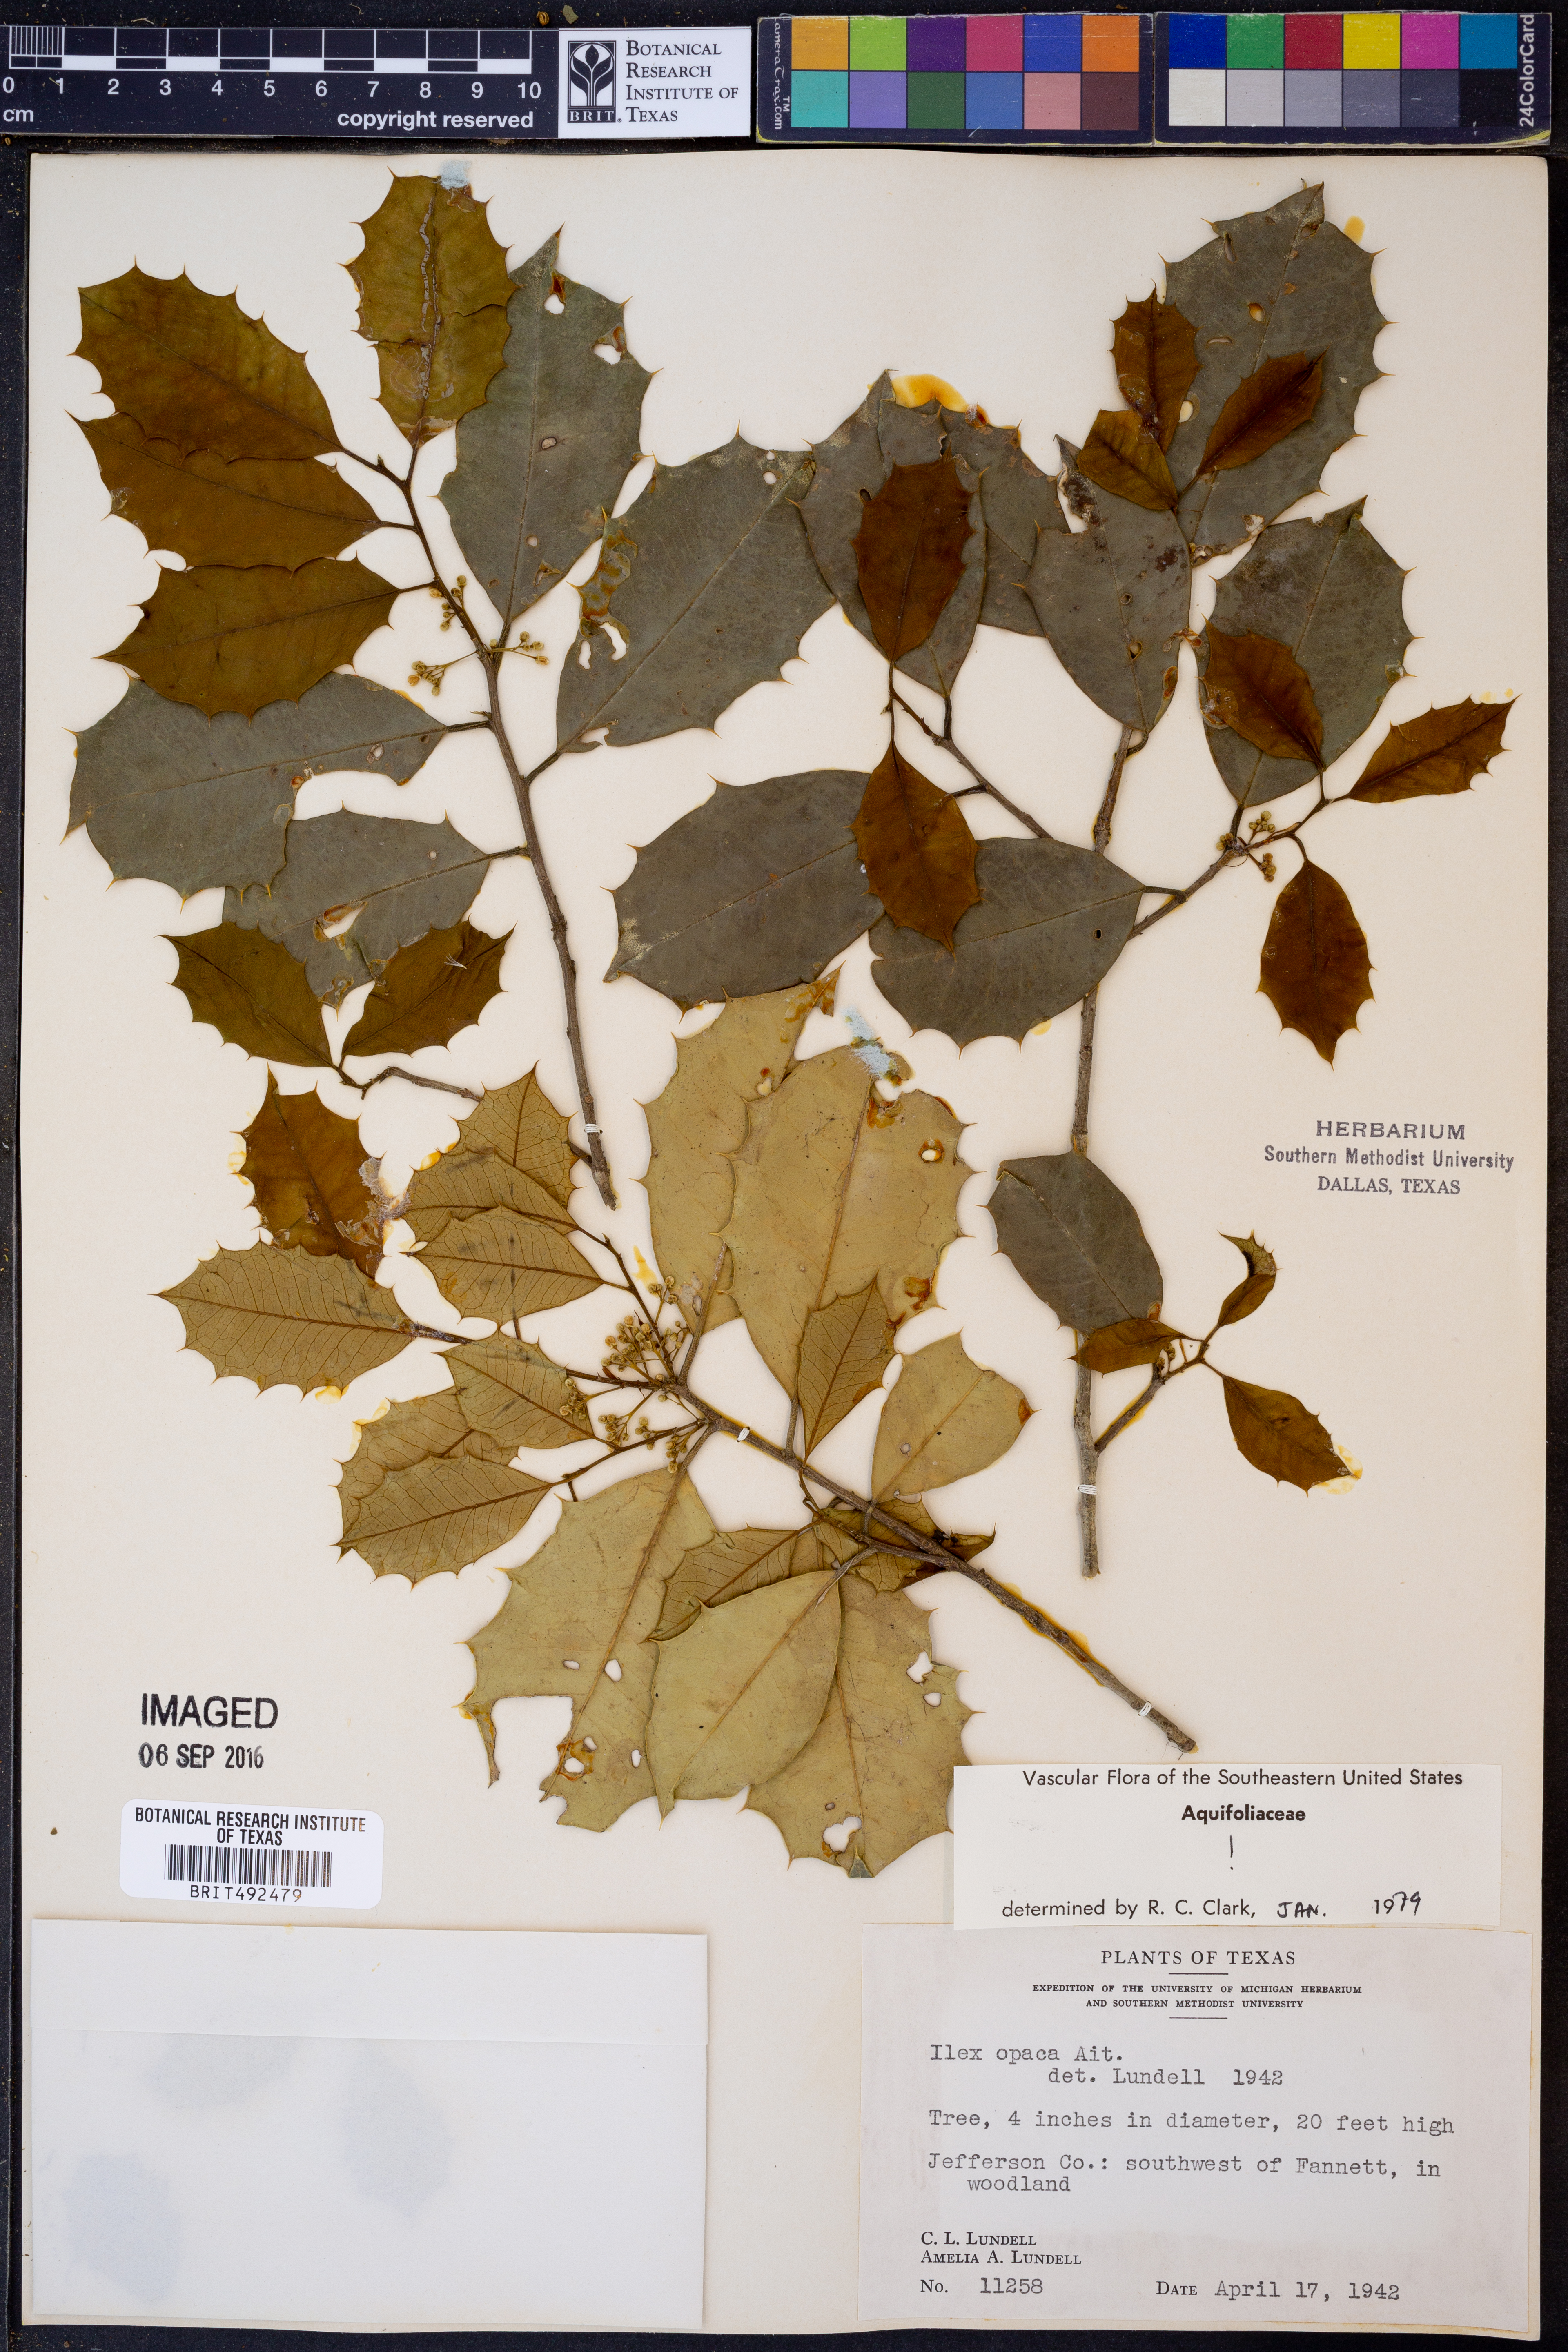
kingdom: Plantae
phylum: Tracheophyta
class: Magnoliopsida
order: Aquifoliales
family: Aquifoliaceae
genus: Ilex
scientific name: Ilex opaca
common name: American holly
